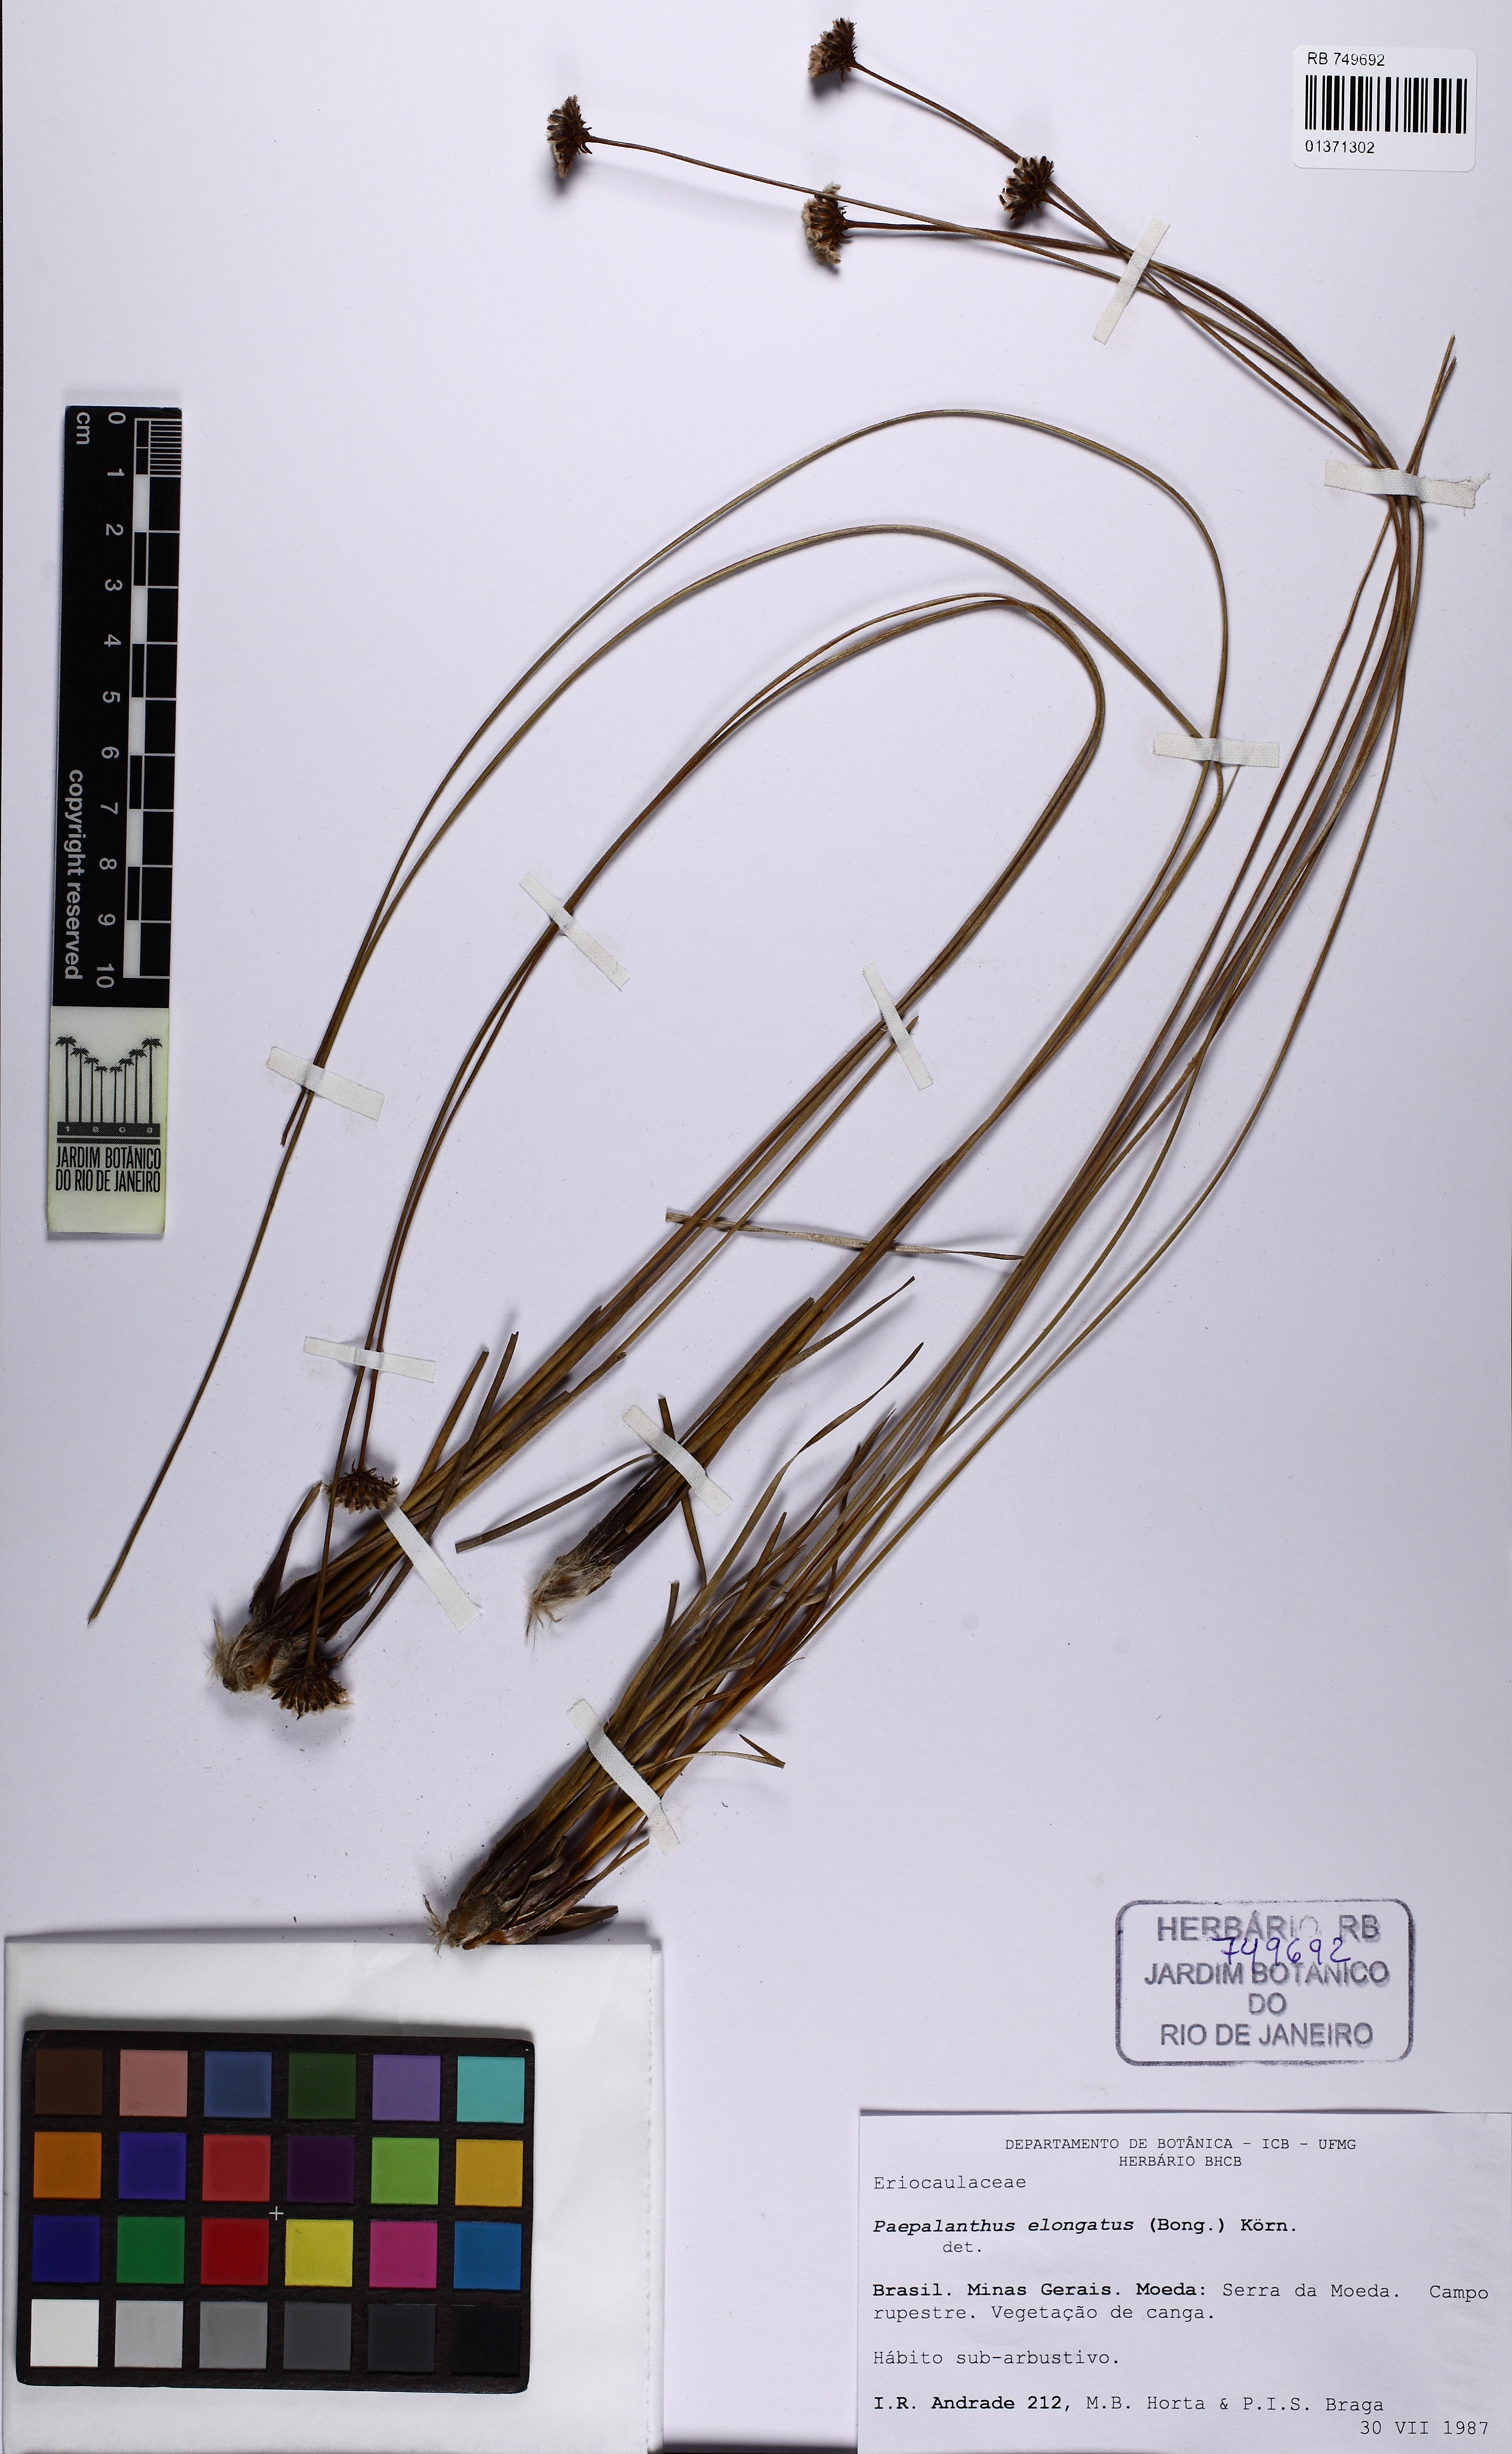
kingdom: Plantae
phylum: Tracheophyta
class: Liliopsida
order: Poales
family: Eriocaulaceae
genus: Paepalanthus
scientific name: Paepalanthus elongatus
